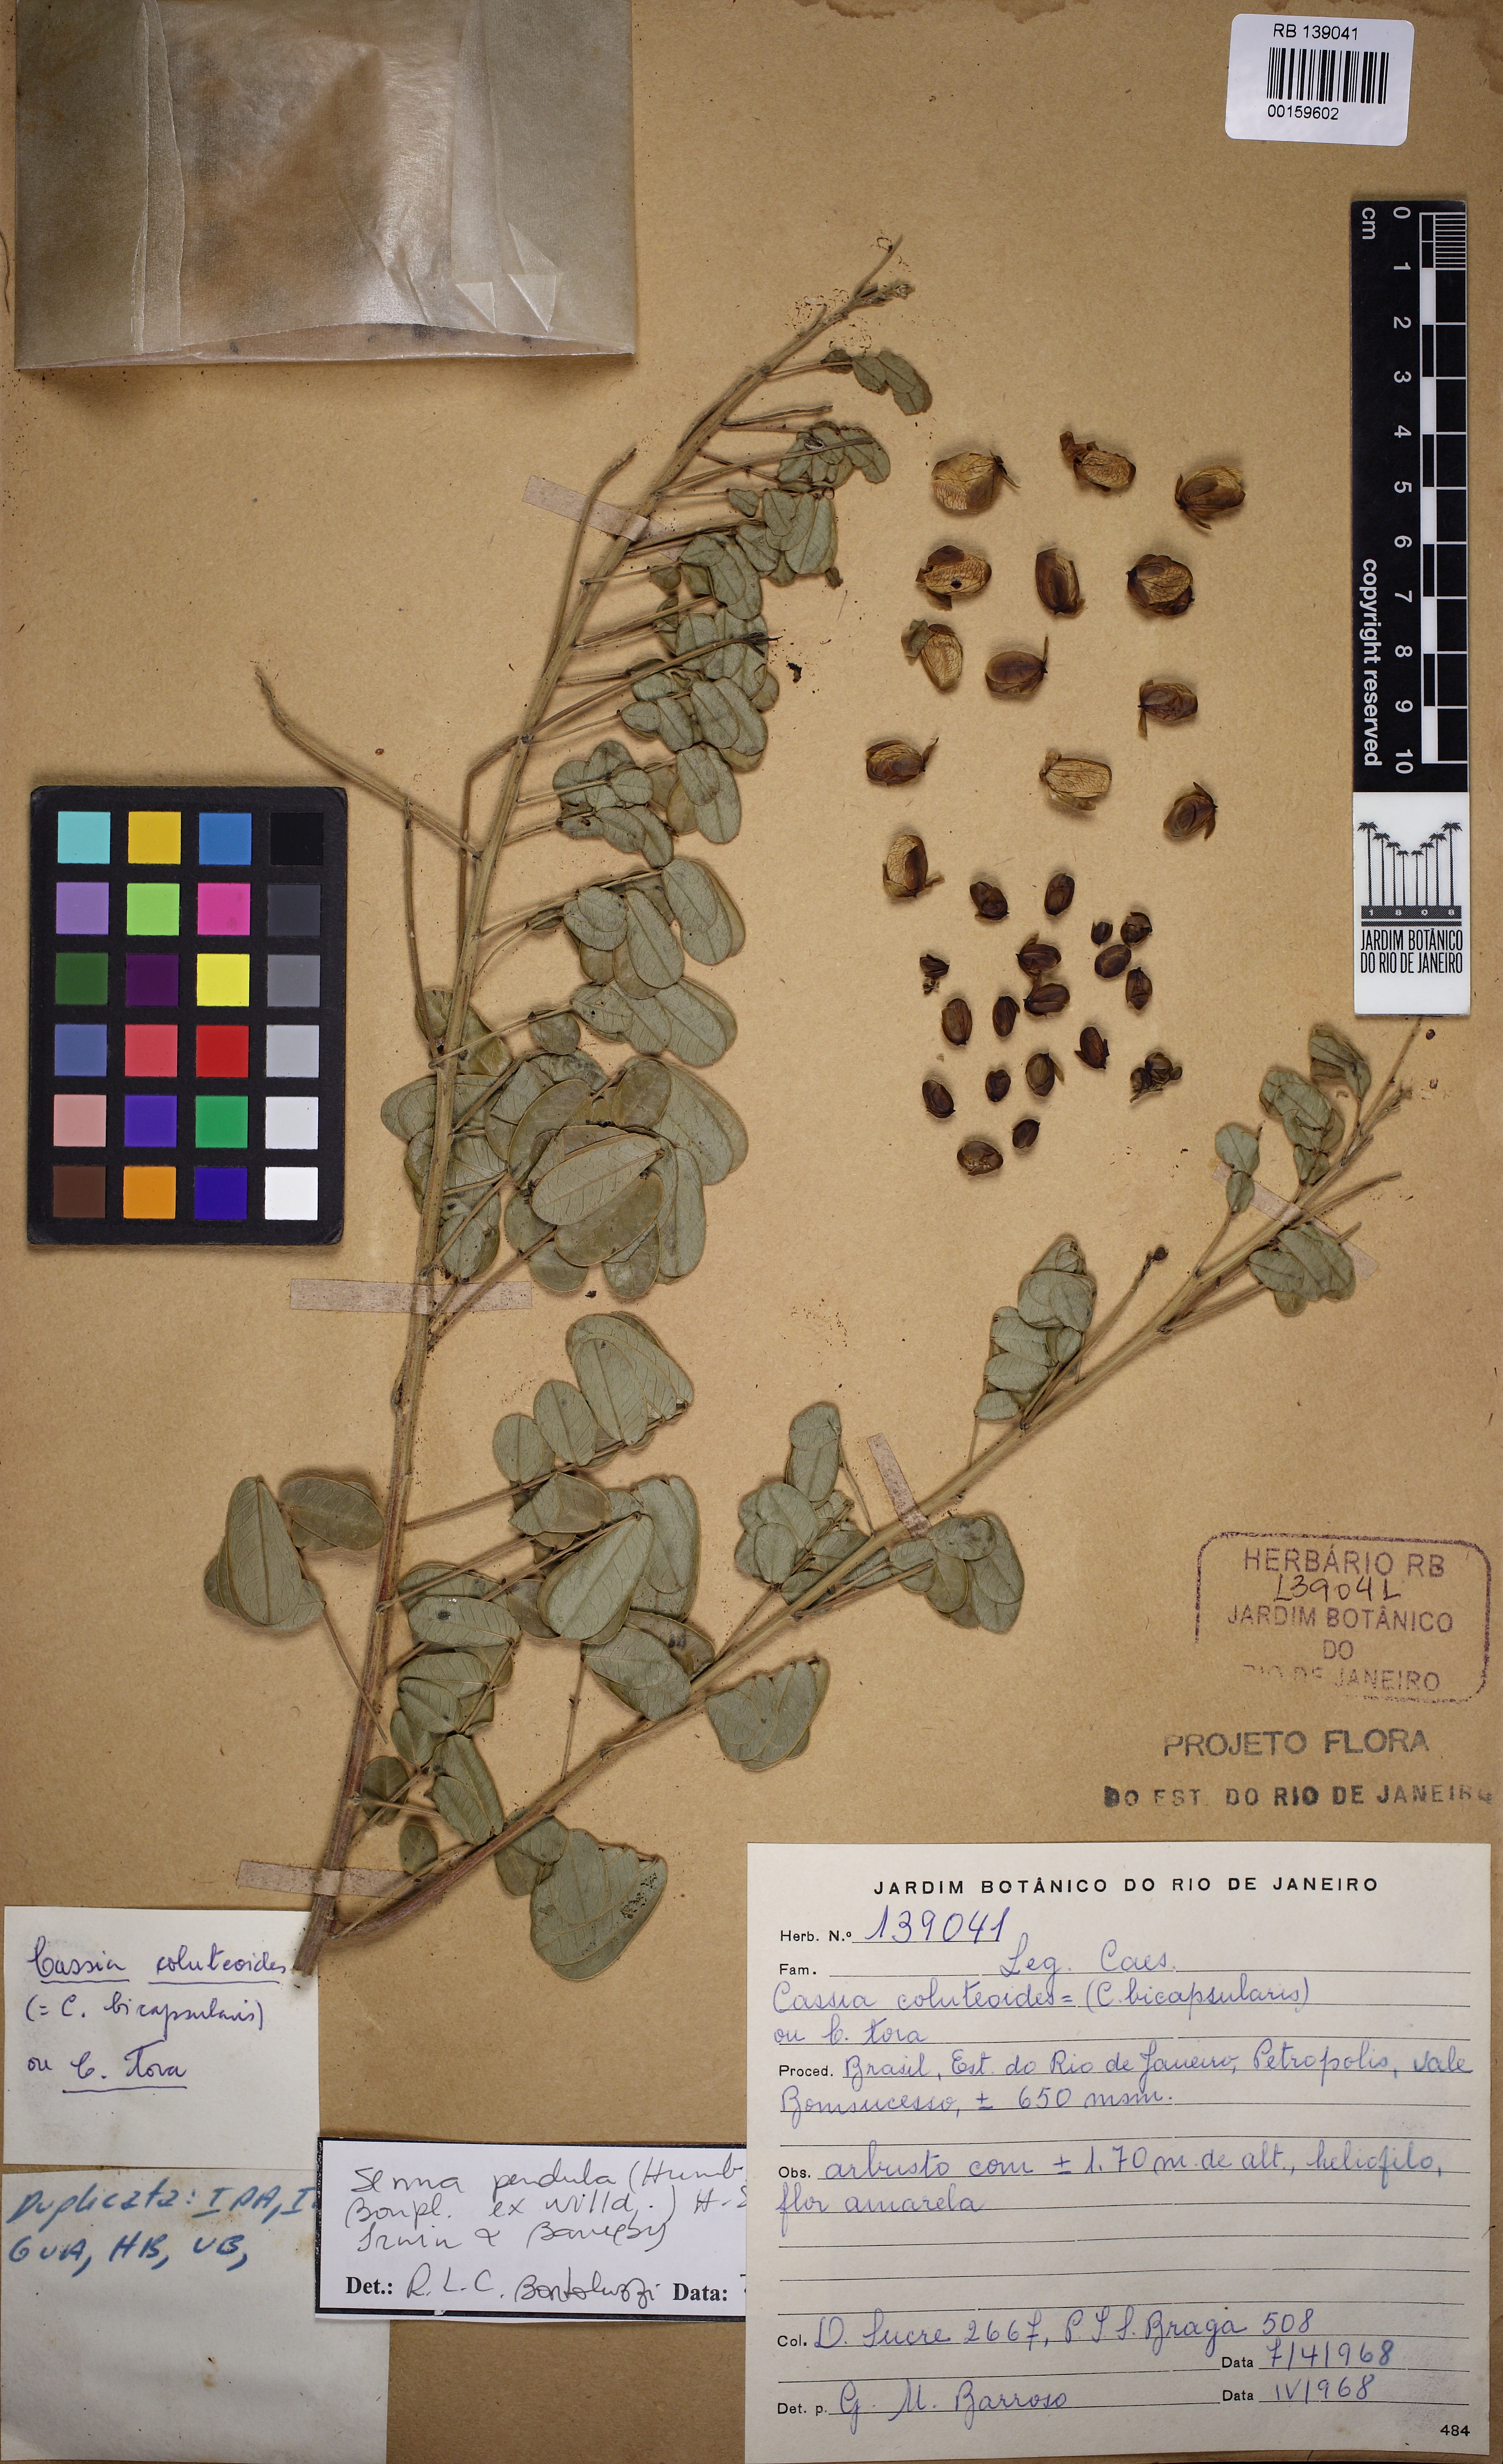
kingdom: Plantae
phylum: Tracheophyta
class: Magnoliopsida
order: Fabales
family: Fabaceae
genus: Senna
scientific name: Senna pendula
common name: Easter cassia
